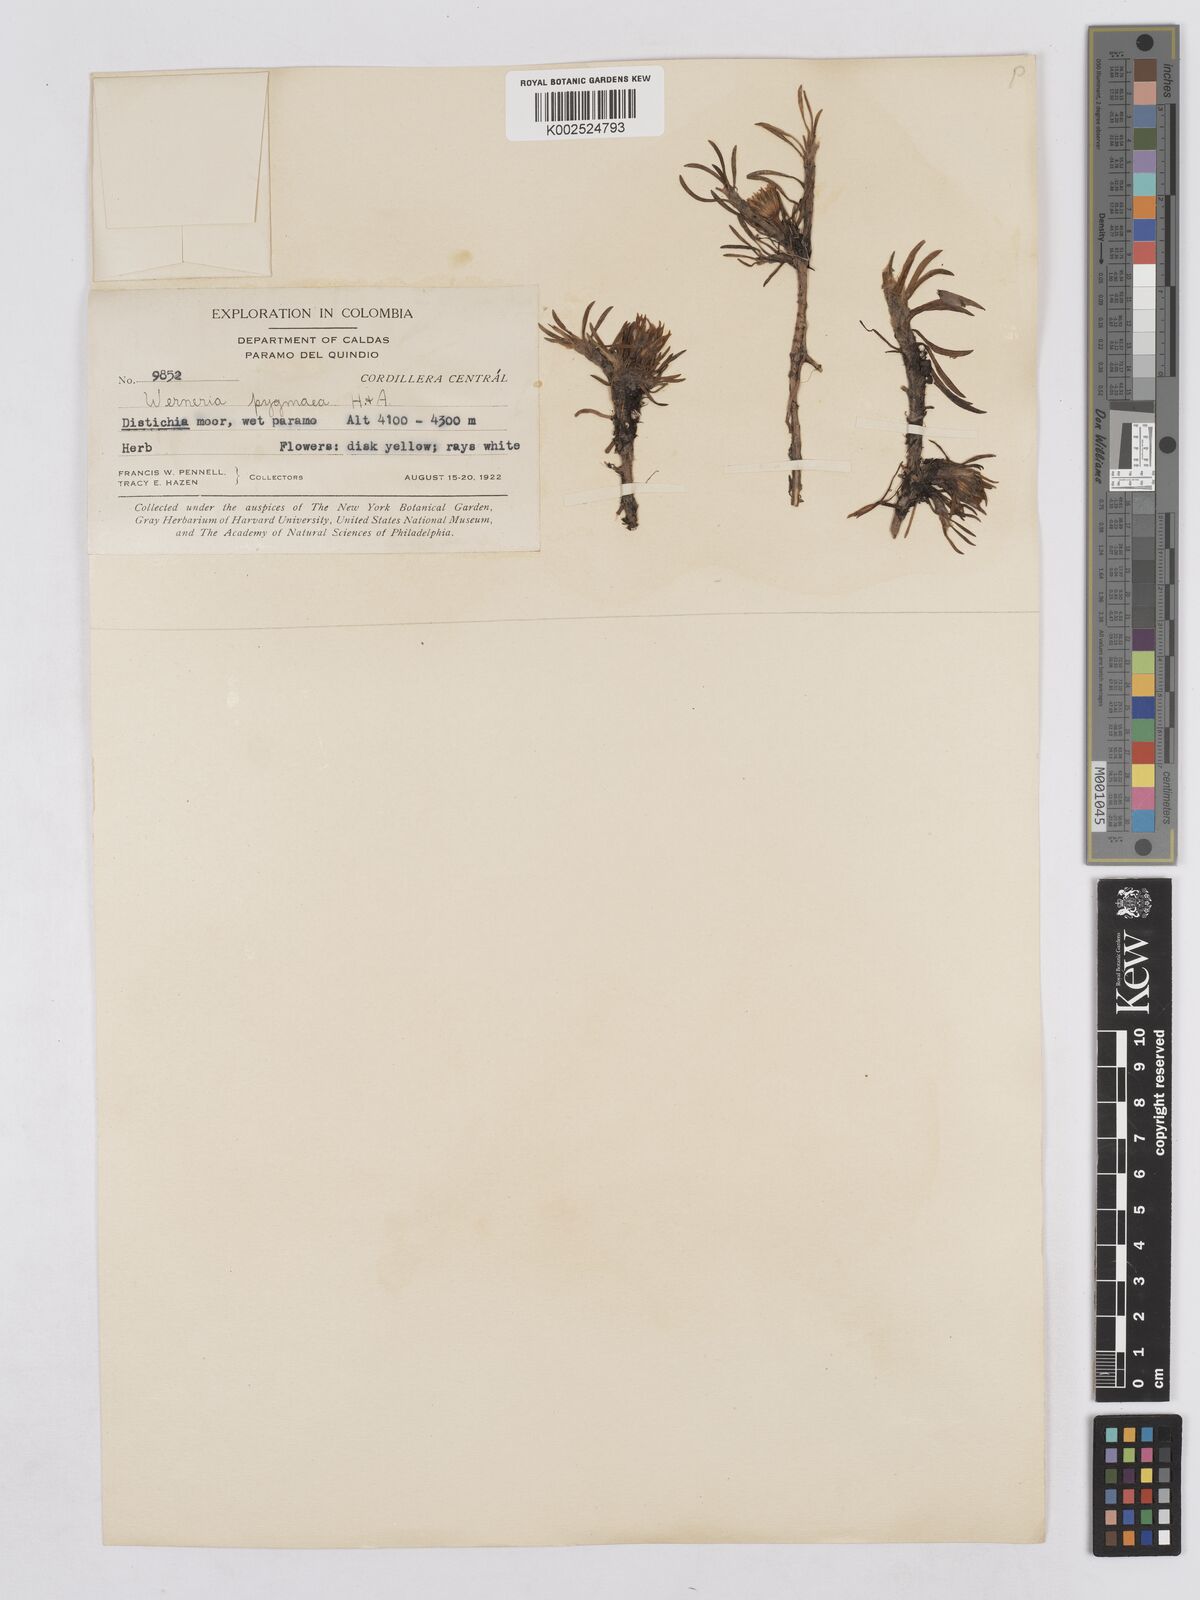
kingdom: Plantae
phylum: Tracheophyta
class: Magnoliopsida
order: Asterales
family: Asteraceae
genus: Rockhausenia
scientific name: Rockhausenia pygmaea
